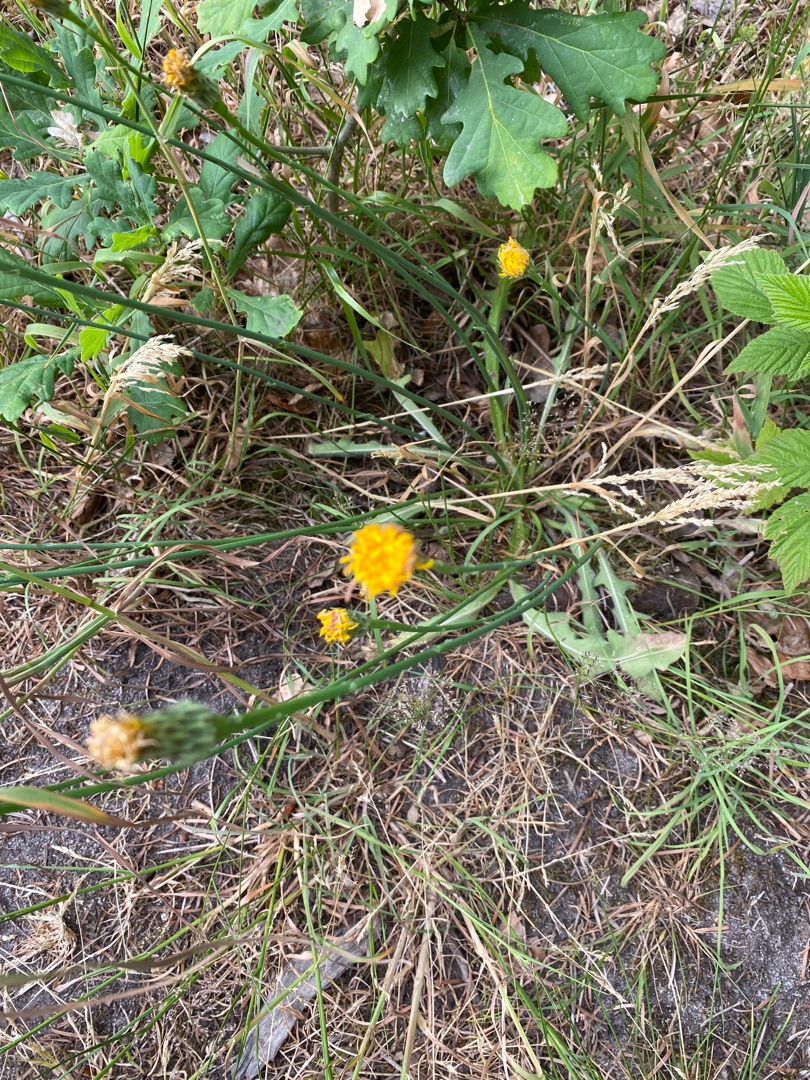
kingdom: Plantae
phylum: Tracheophyta
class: Magnoliopsida
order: Asterales
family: Asteraceae
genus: Hypochaeris
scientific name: Hypochaeris radicata
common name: Almindelig kongepen
